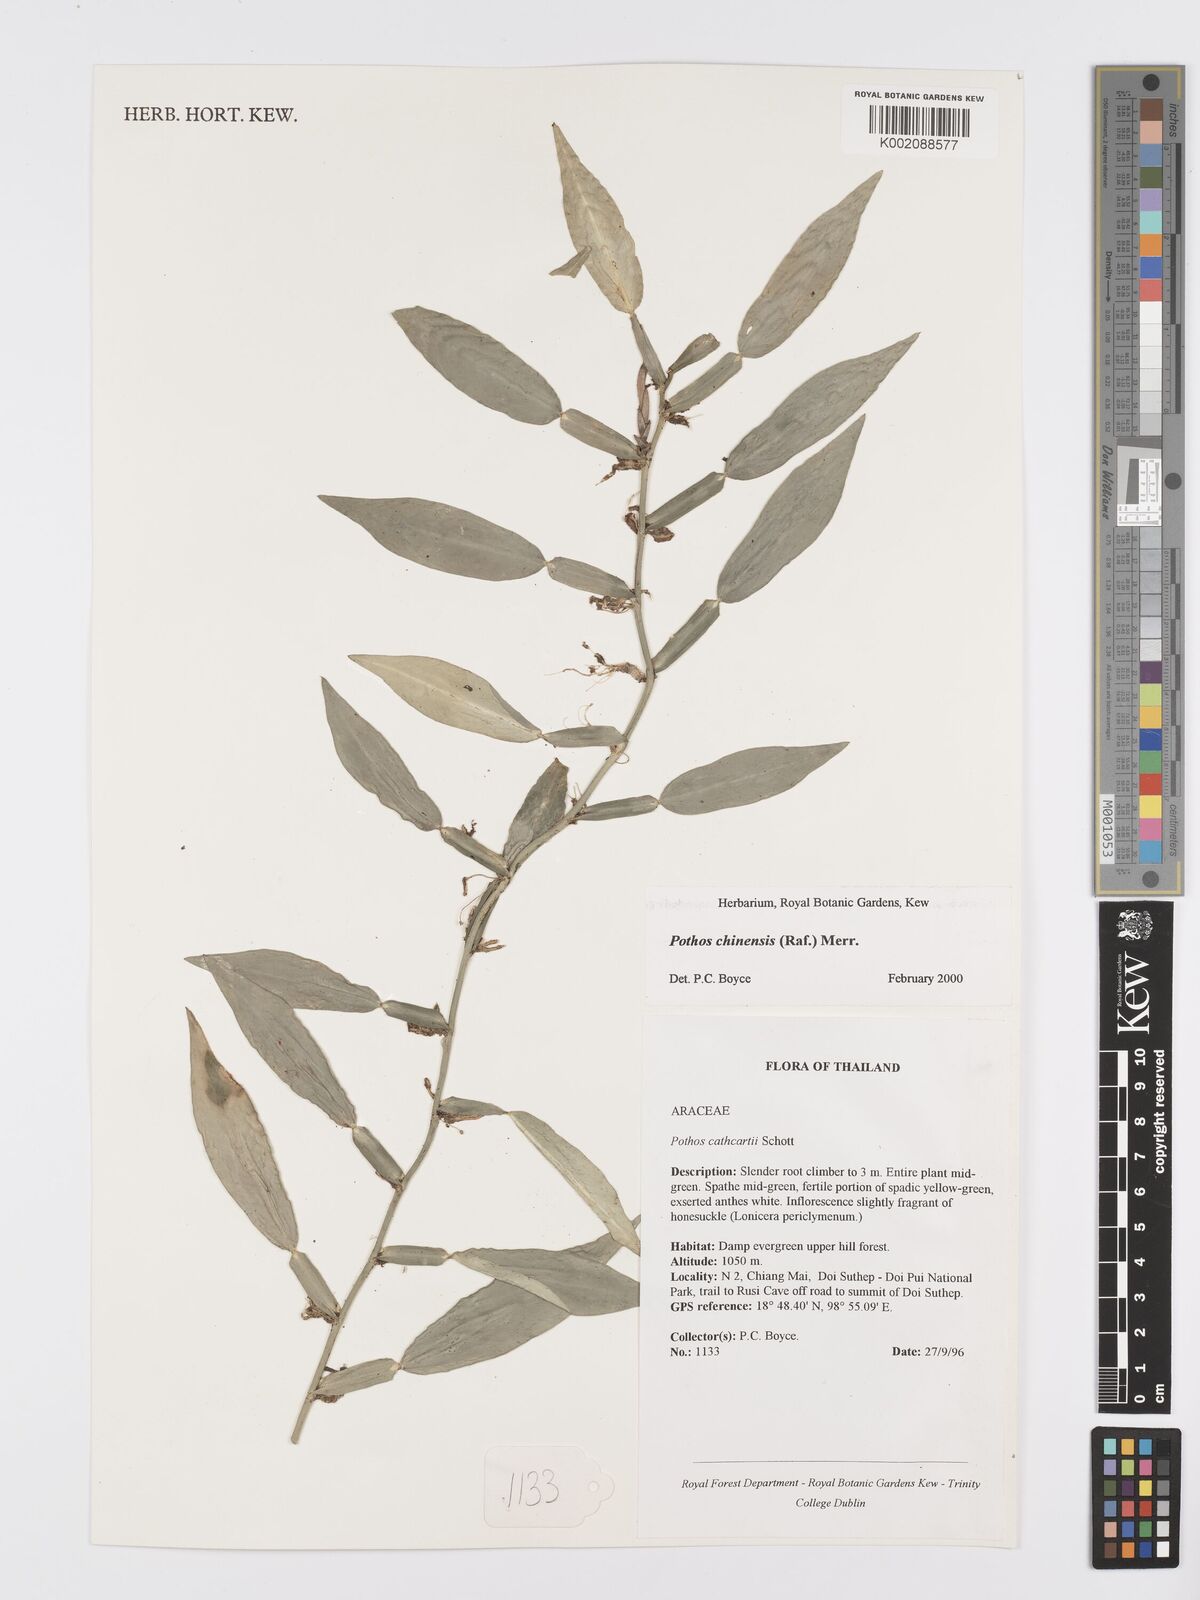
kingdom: Plantae
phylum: Tracheophyta
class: Liliopsida
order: Alismatales
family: Araceae
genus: Pothos
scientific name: Pothos chinensis
